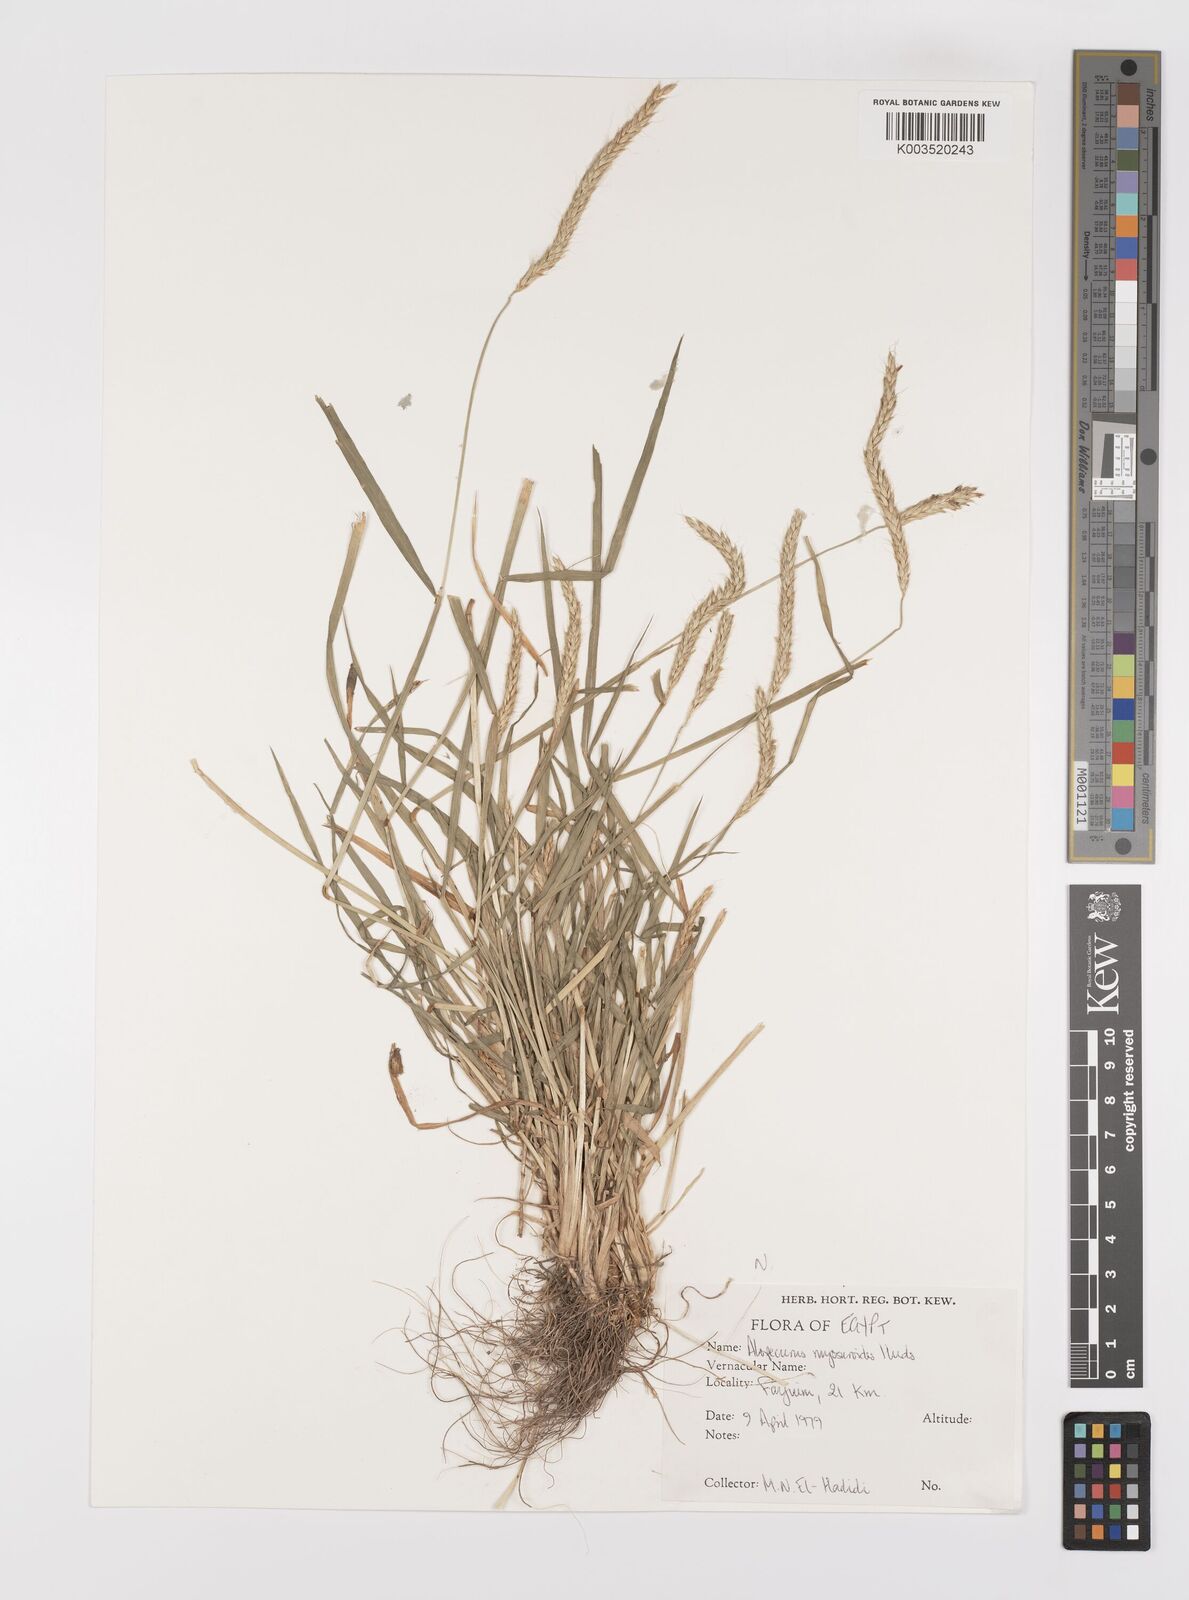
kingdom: Plantae
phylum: Tracheophyta
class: Liliopsida
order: Poales
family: Poaceae
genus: Alopecurus
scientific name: Alopecurus myosuroides
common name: Black-grass
